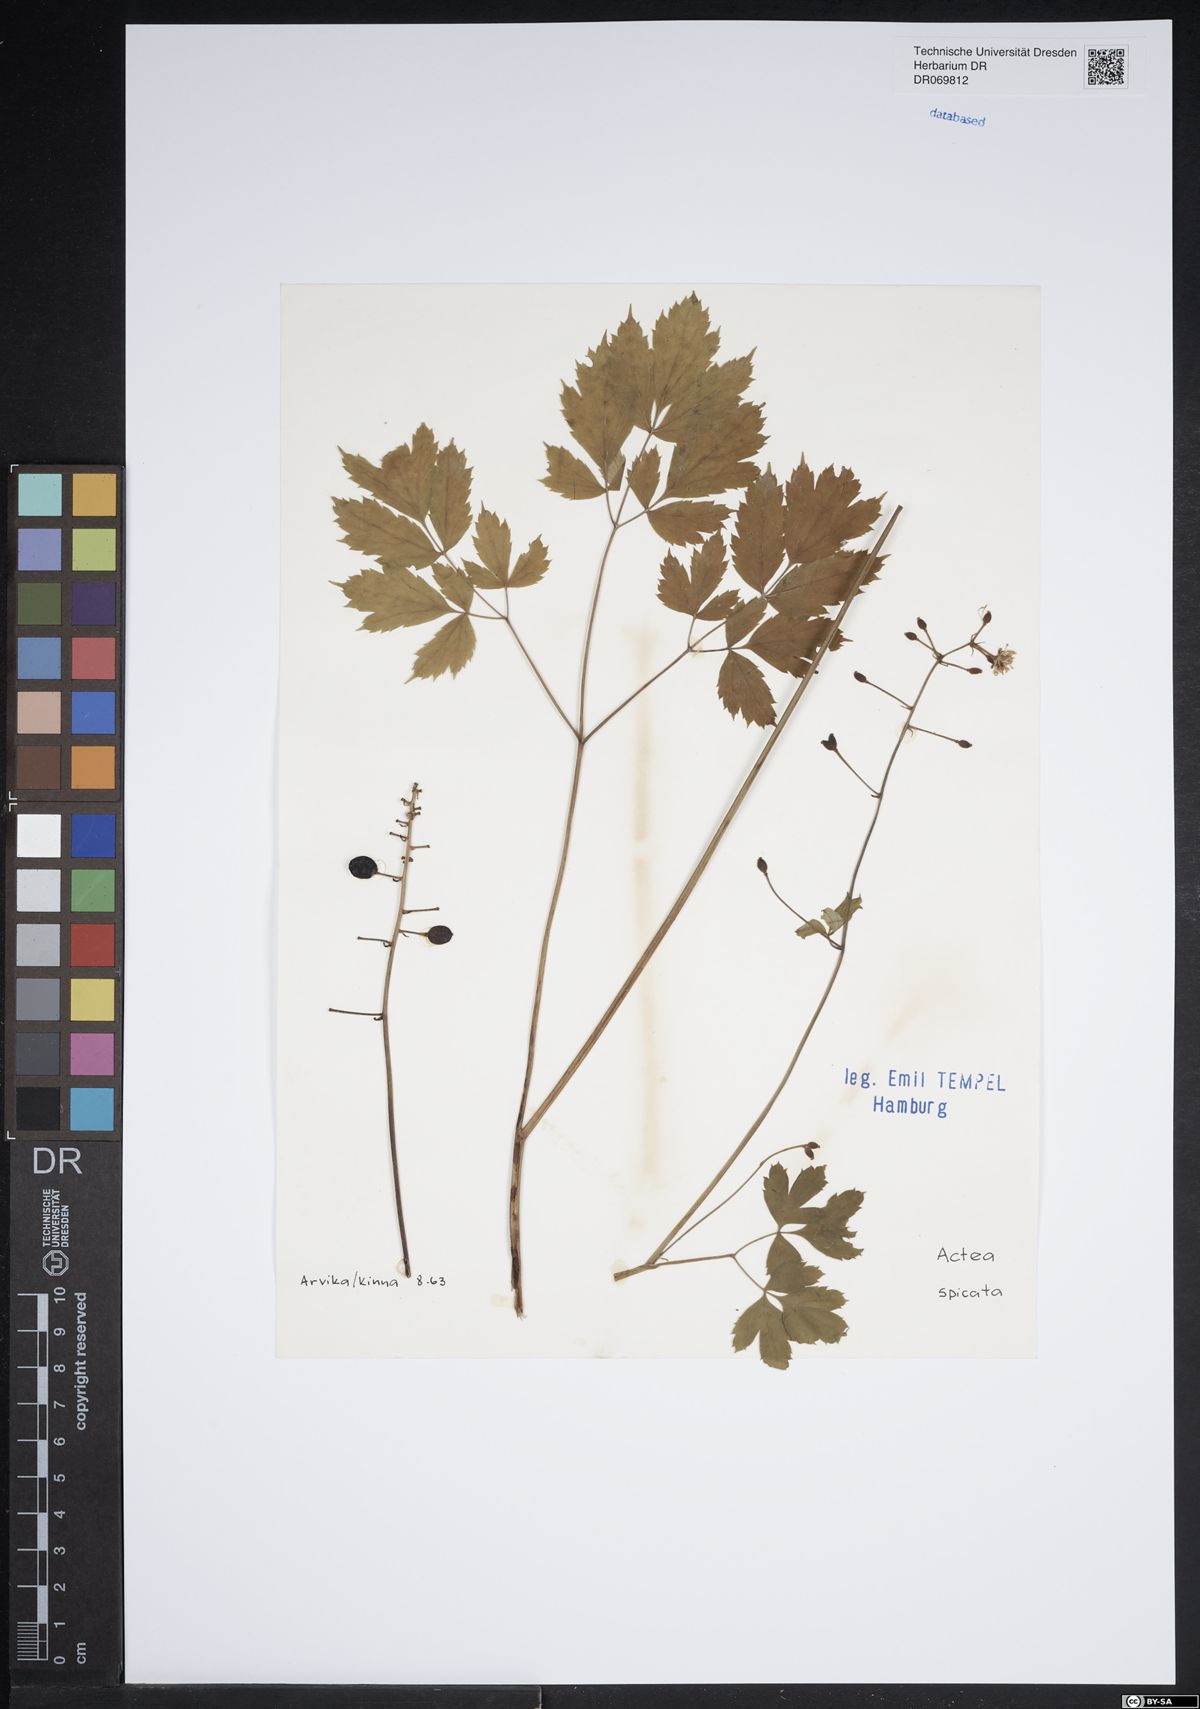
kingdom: Plantae
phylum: Tracheophyta
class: Magnoliopsida
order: Ranunculales
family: Ranunculaceae
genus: Actaea
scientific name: Actaea spicata
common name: Baneberry
